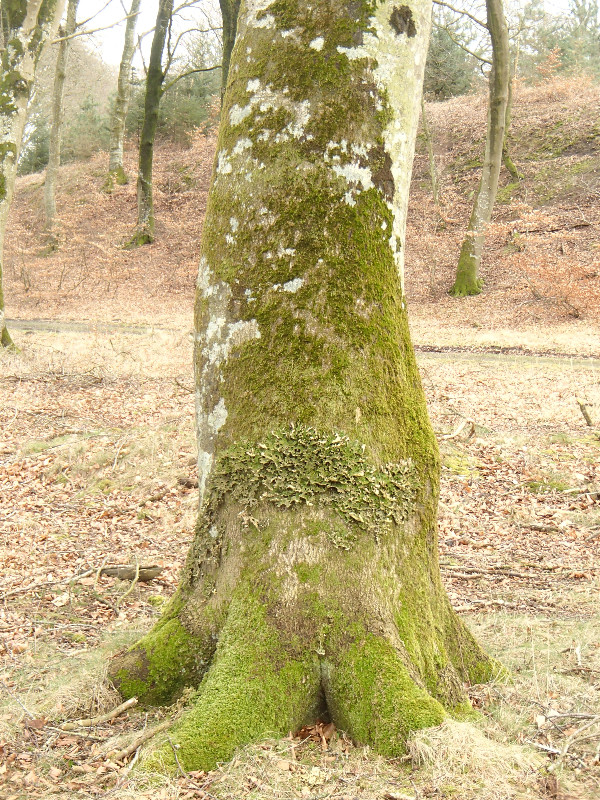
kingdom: Fungi
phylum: Ascomycota
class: Lecanoromycetes
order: Peltigerales
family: Lobariaceae
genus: Lobaria
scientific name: Lobaria pulmonaria
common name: almindelig lungelav
